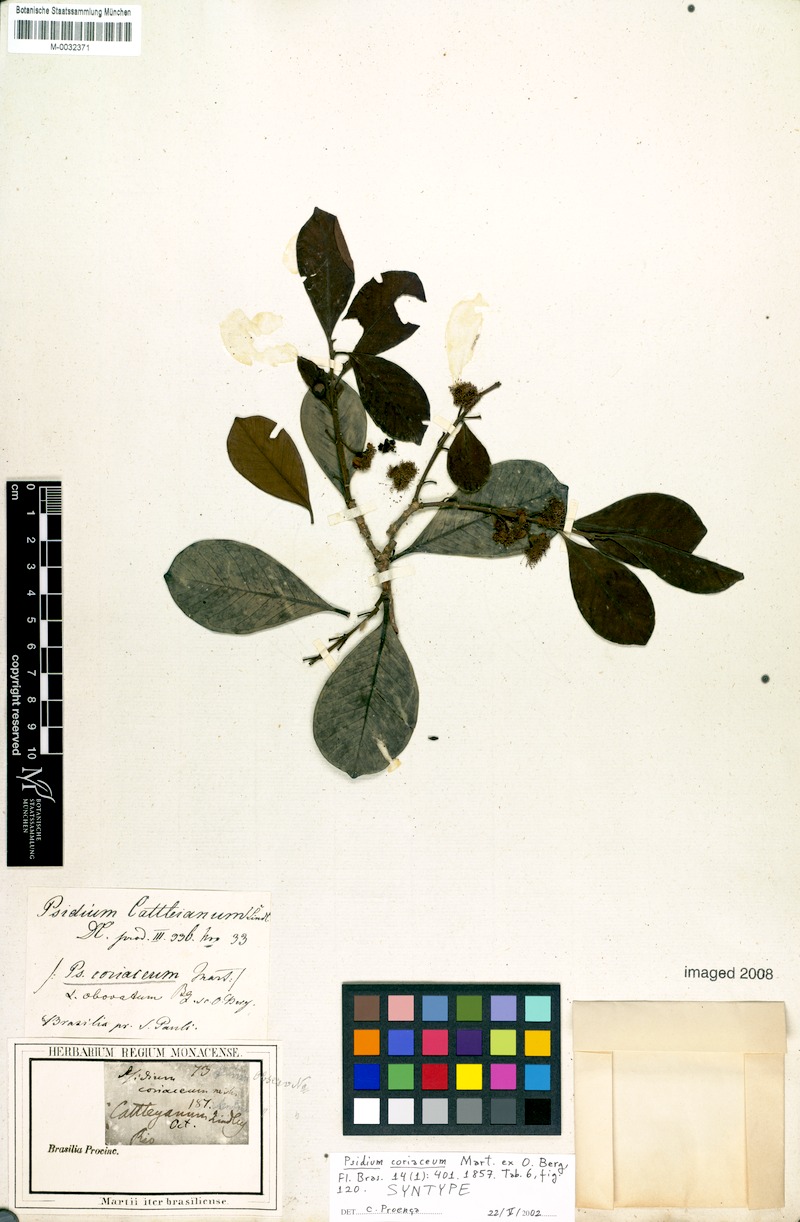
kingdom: Plantae
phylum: Tracheophyta
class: Magnoliopsida
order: Myrtales
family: Myrtaceae
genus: Psidium
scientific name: Psidium cattleianum
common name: Strawberry guava
